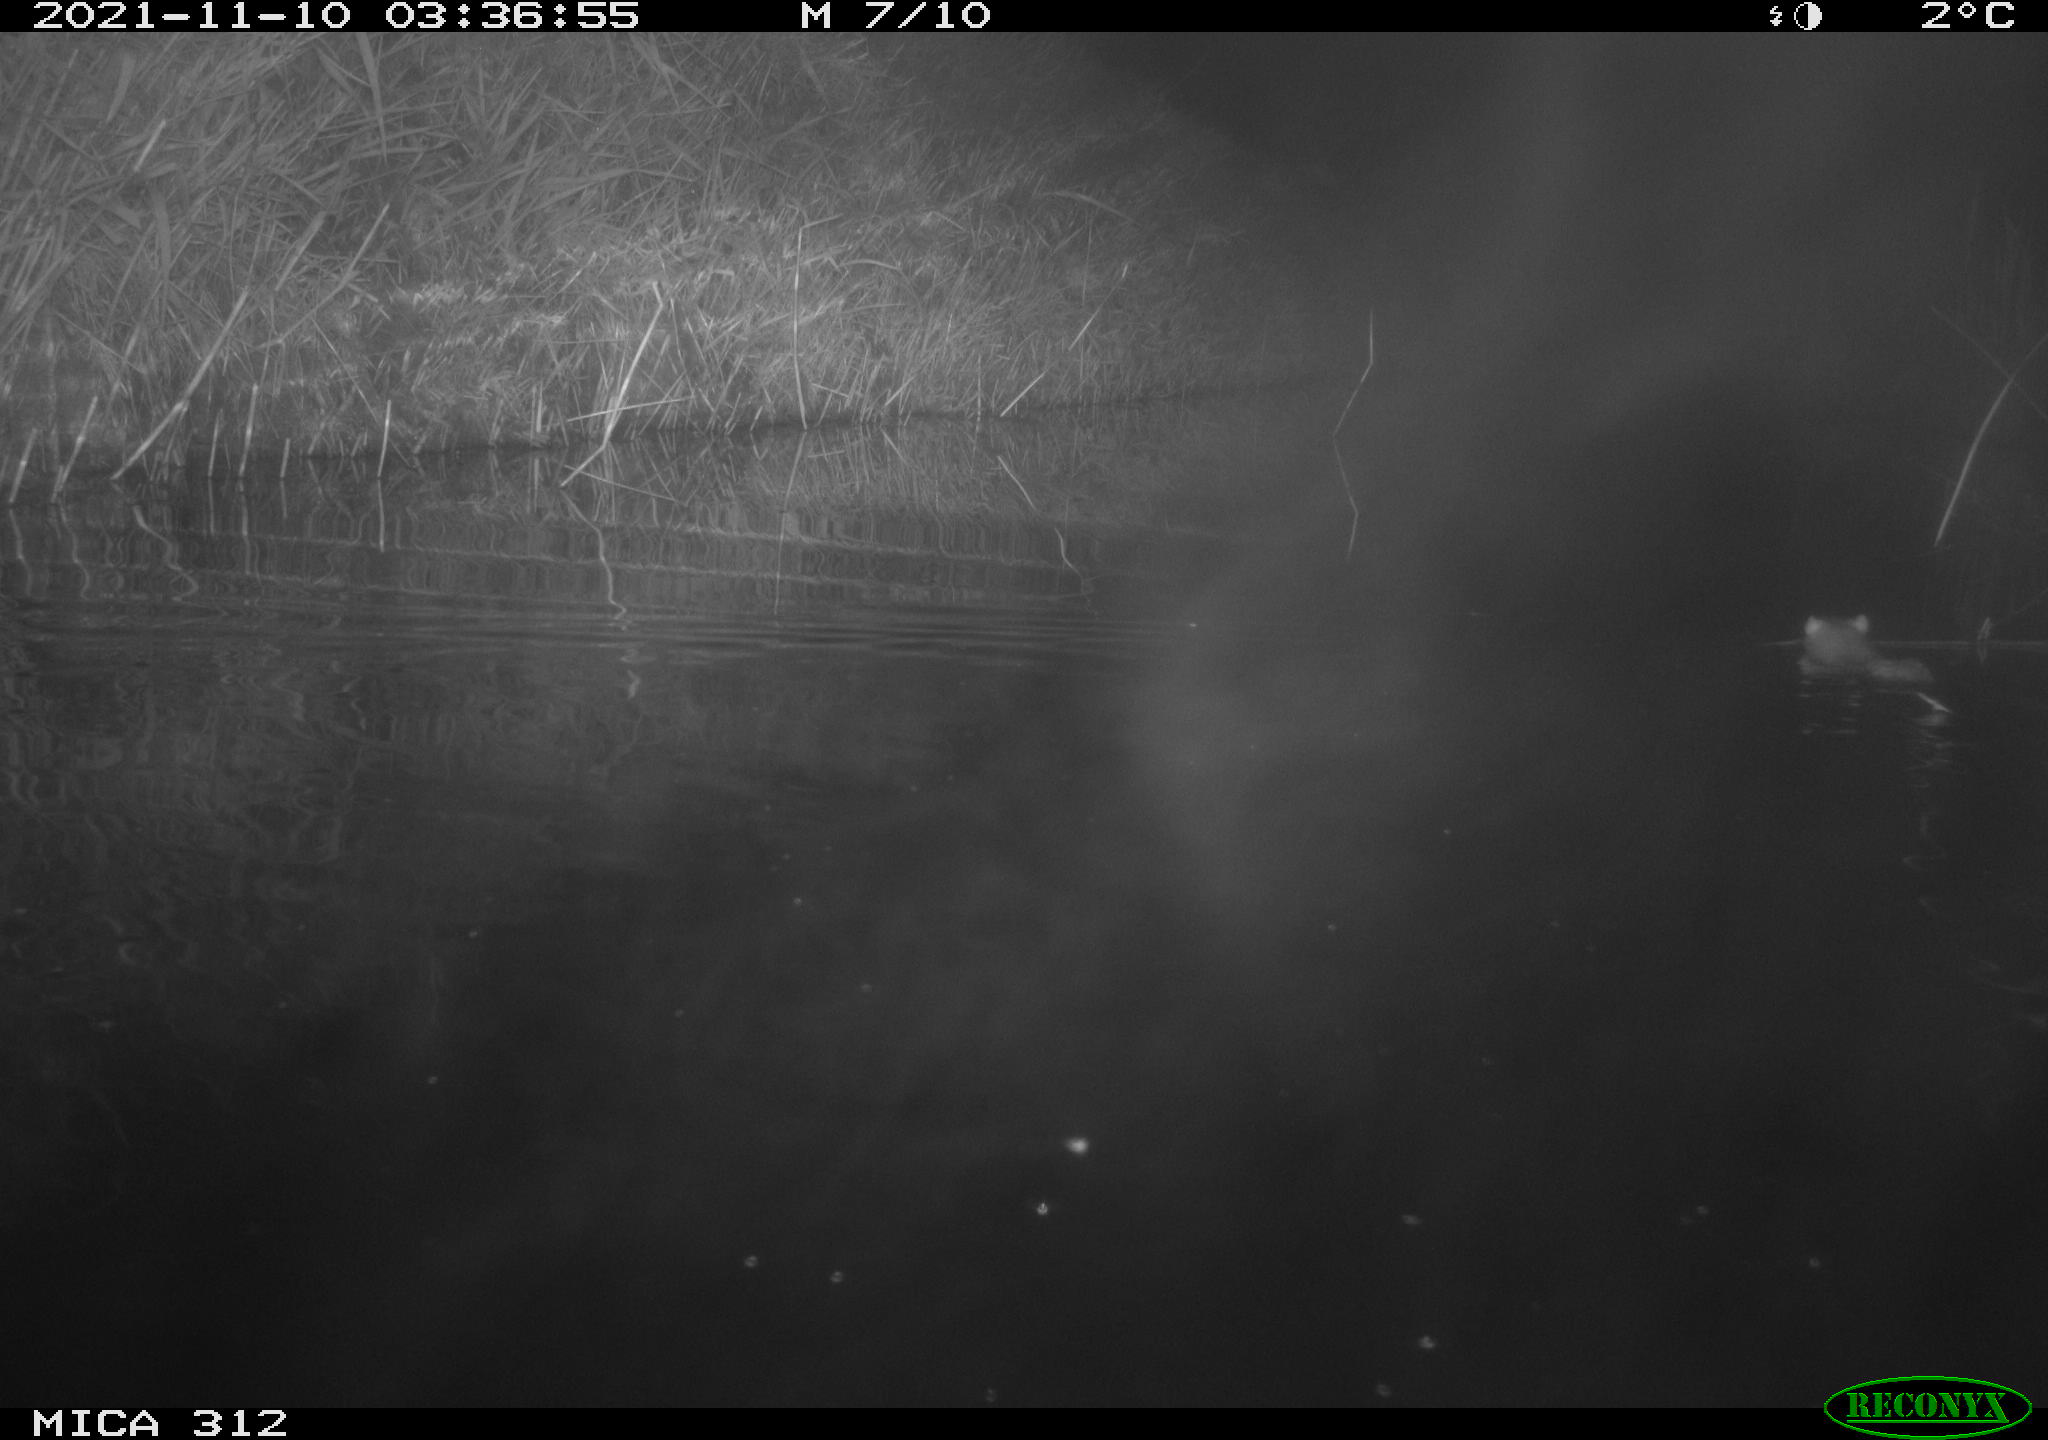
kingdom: Animalia
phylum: Chordata
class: Mammalia
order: Rodentia
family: Muridae
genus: Rattus
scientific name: Rattus norvegicus
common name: Brown rat
